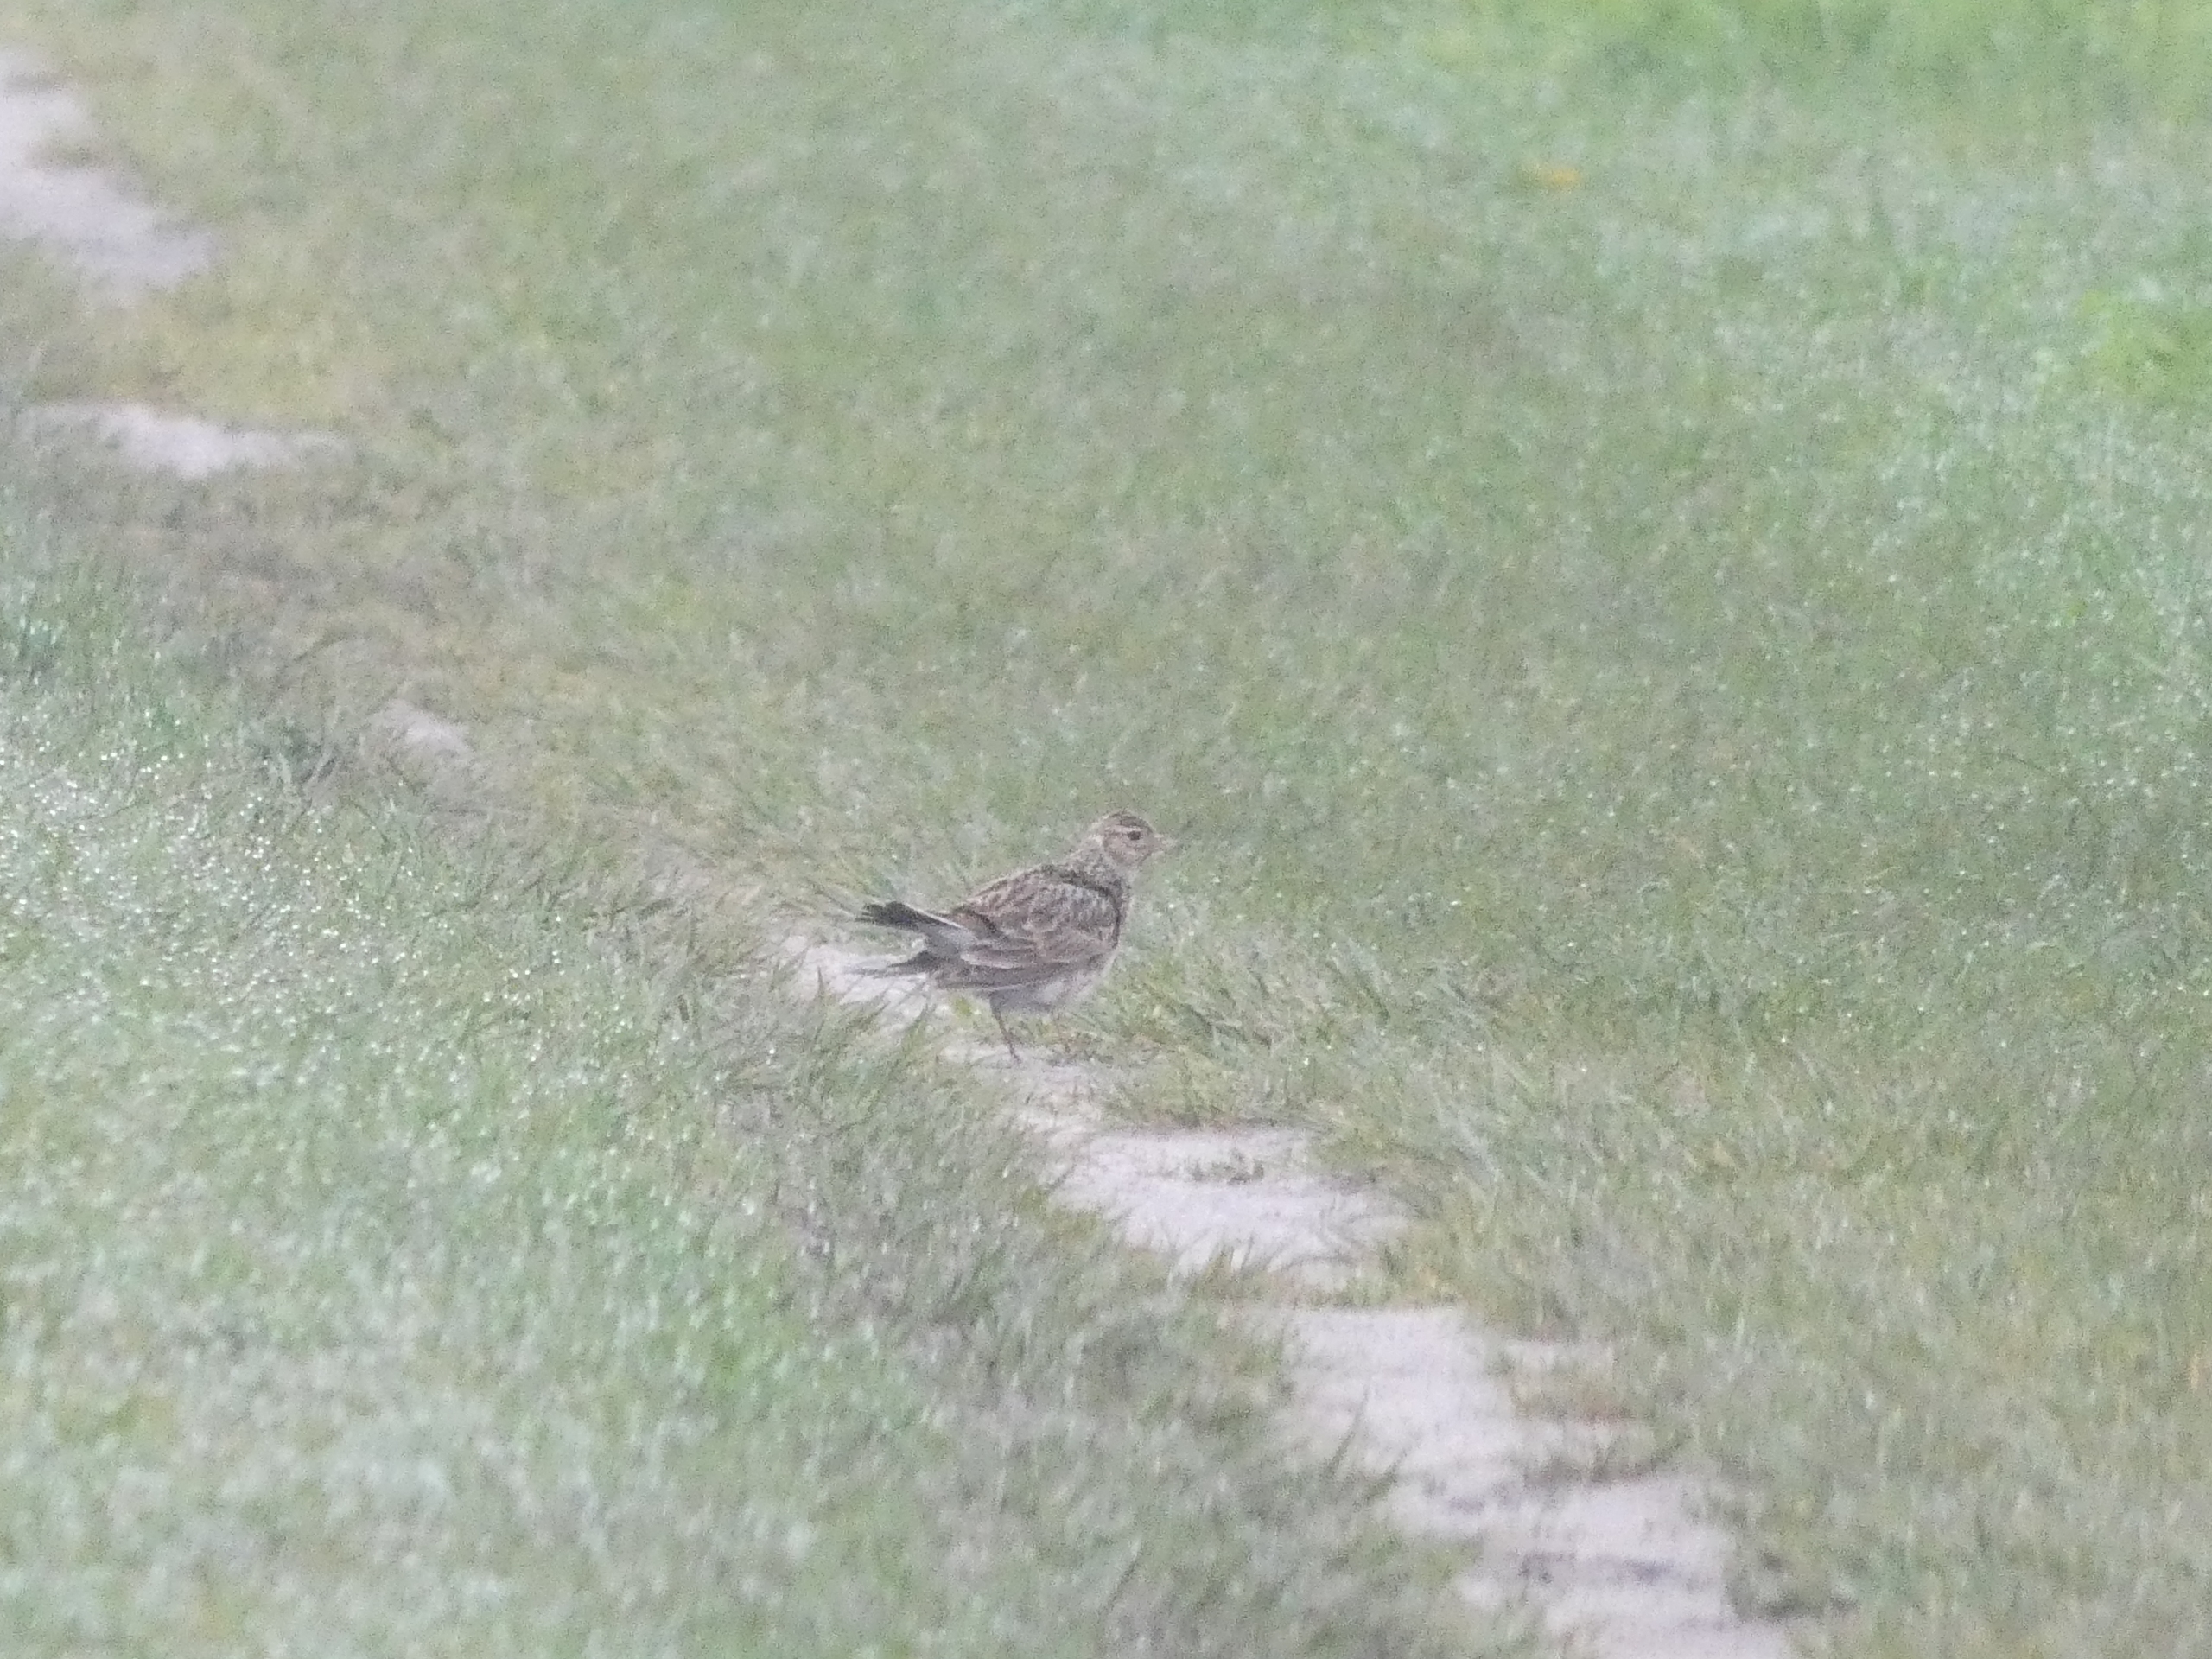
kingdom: Animalia
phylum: Chordata
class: Aves
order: Passeriformes
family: Alaudidae
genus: Alauda
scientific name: Alauda arvensis
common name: Sanglærke
